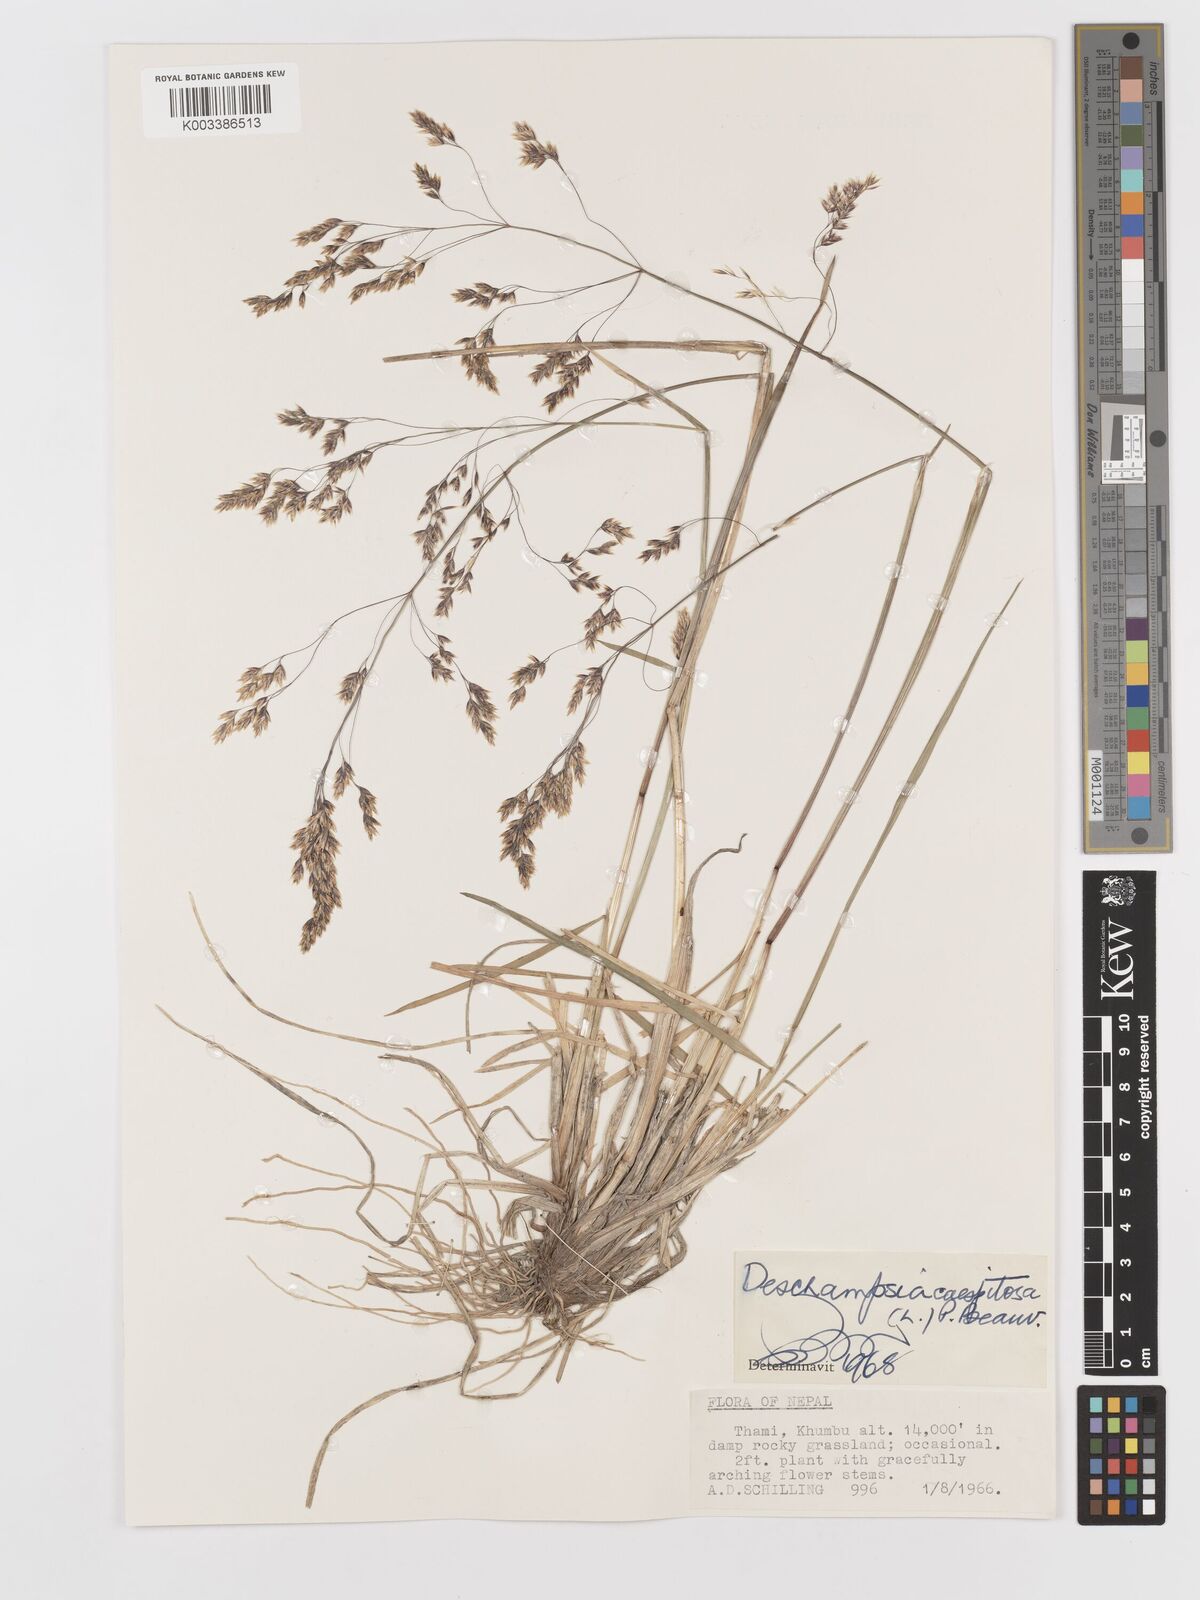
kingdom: Plantae
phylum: Tracheophyta
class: Liliopsida
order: Poales
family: Poaceae
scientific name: Poaceae
